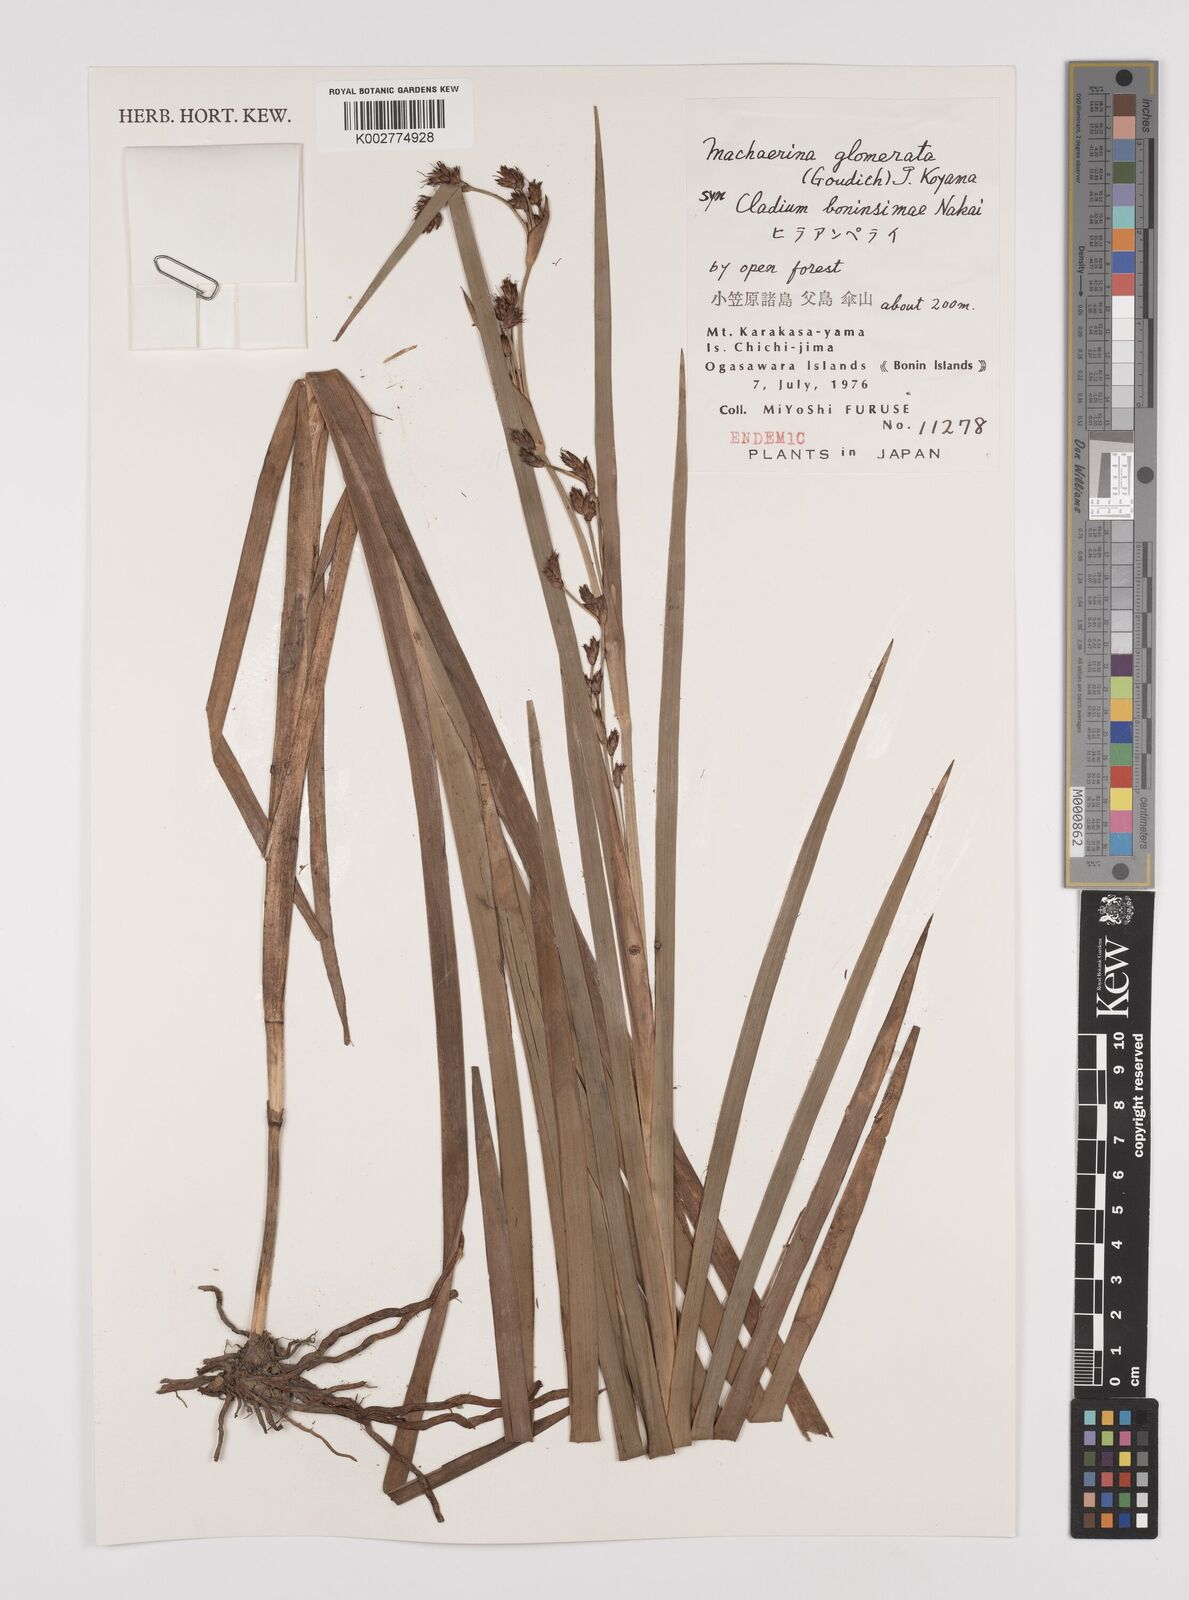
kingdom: Plantae
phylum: Tracheophyta
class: Liliopsida
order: Poales
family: Cyperaceae
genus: Machaerina
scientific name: Machaerina glomerata
